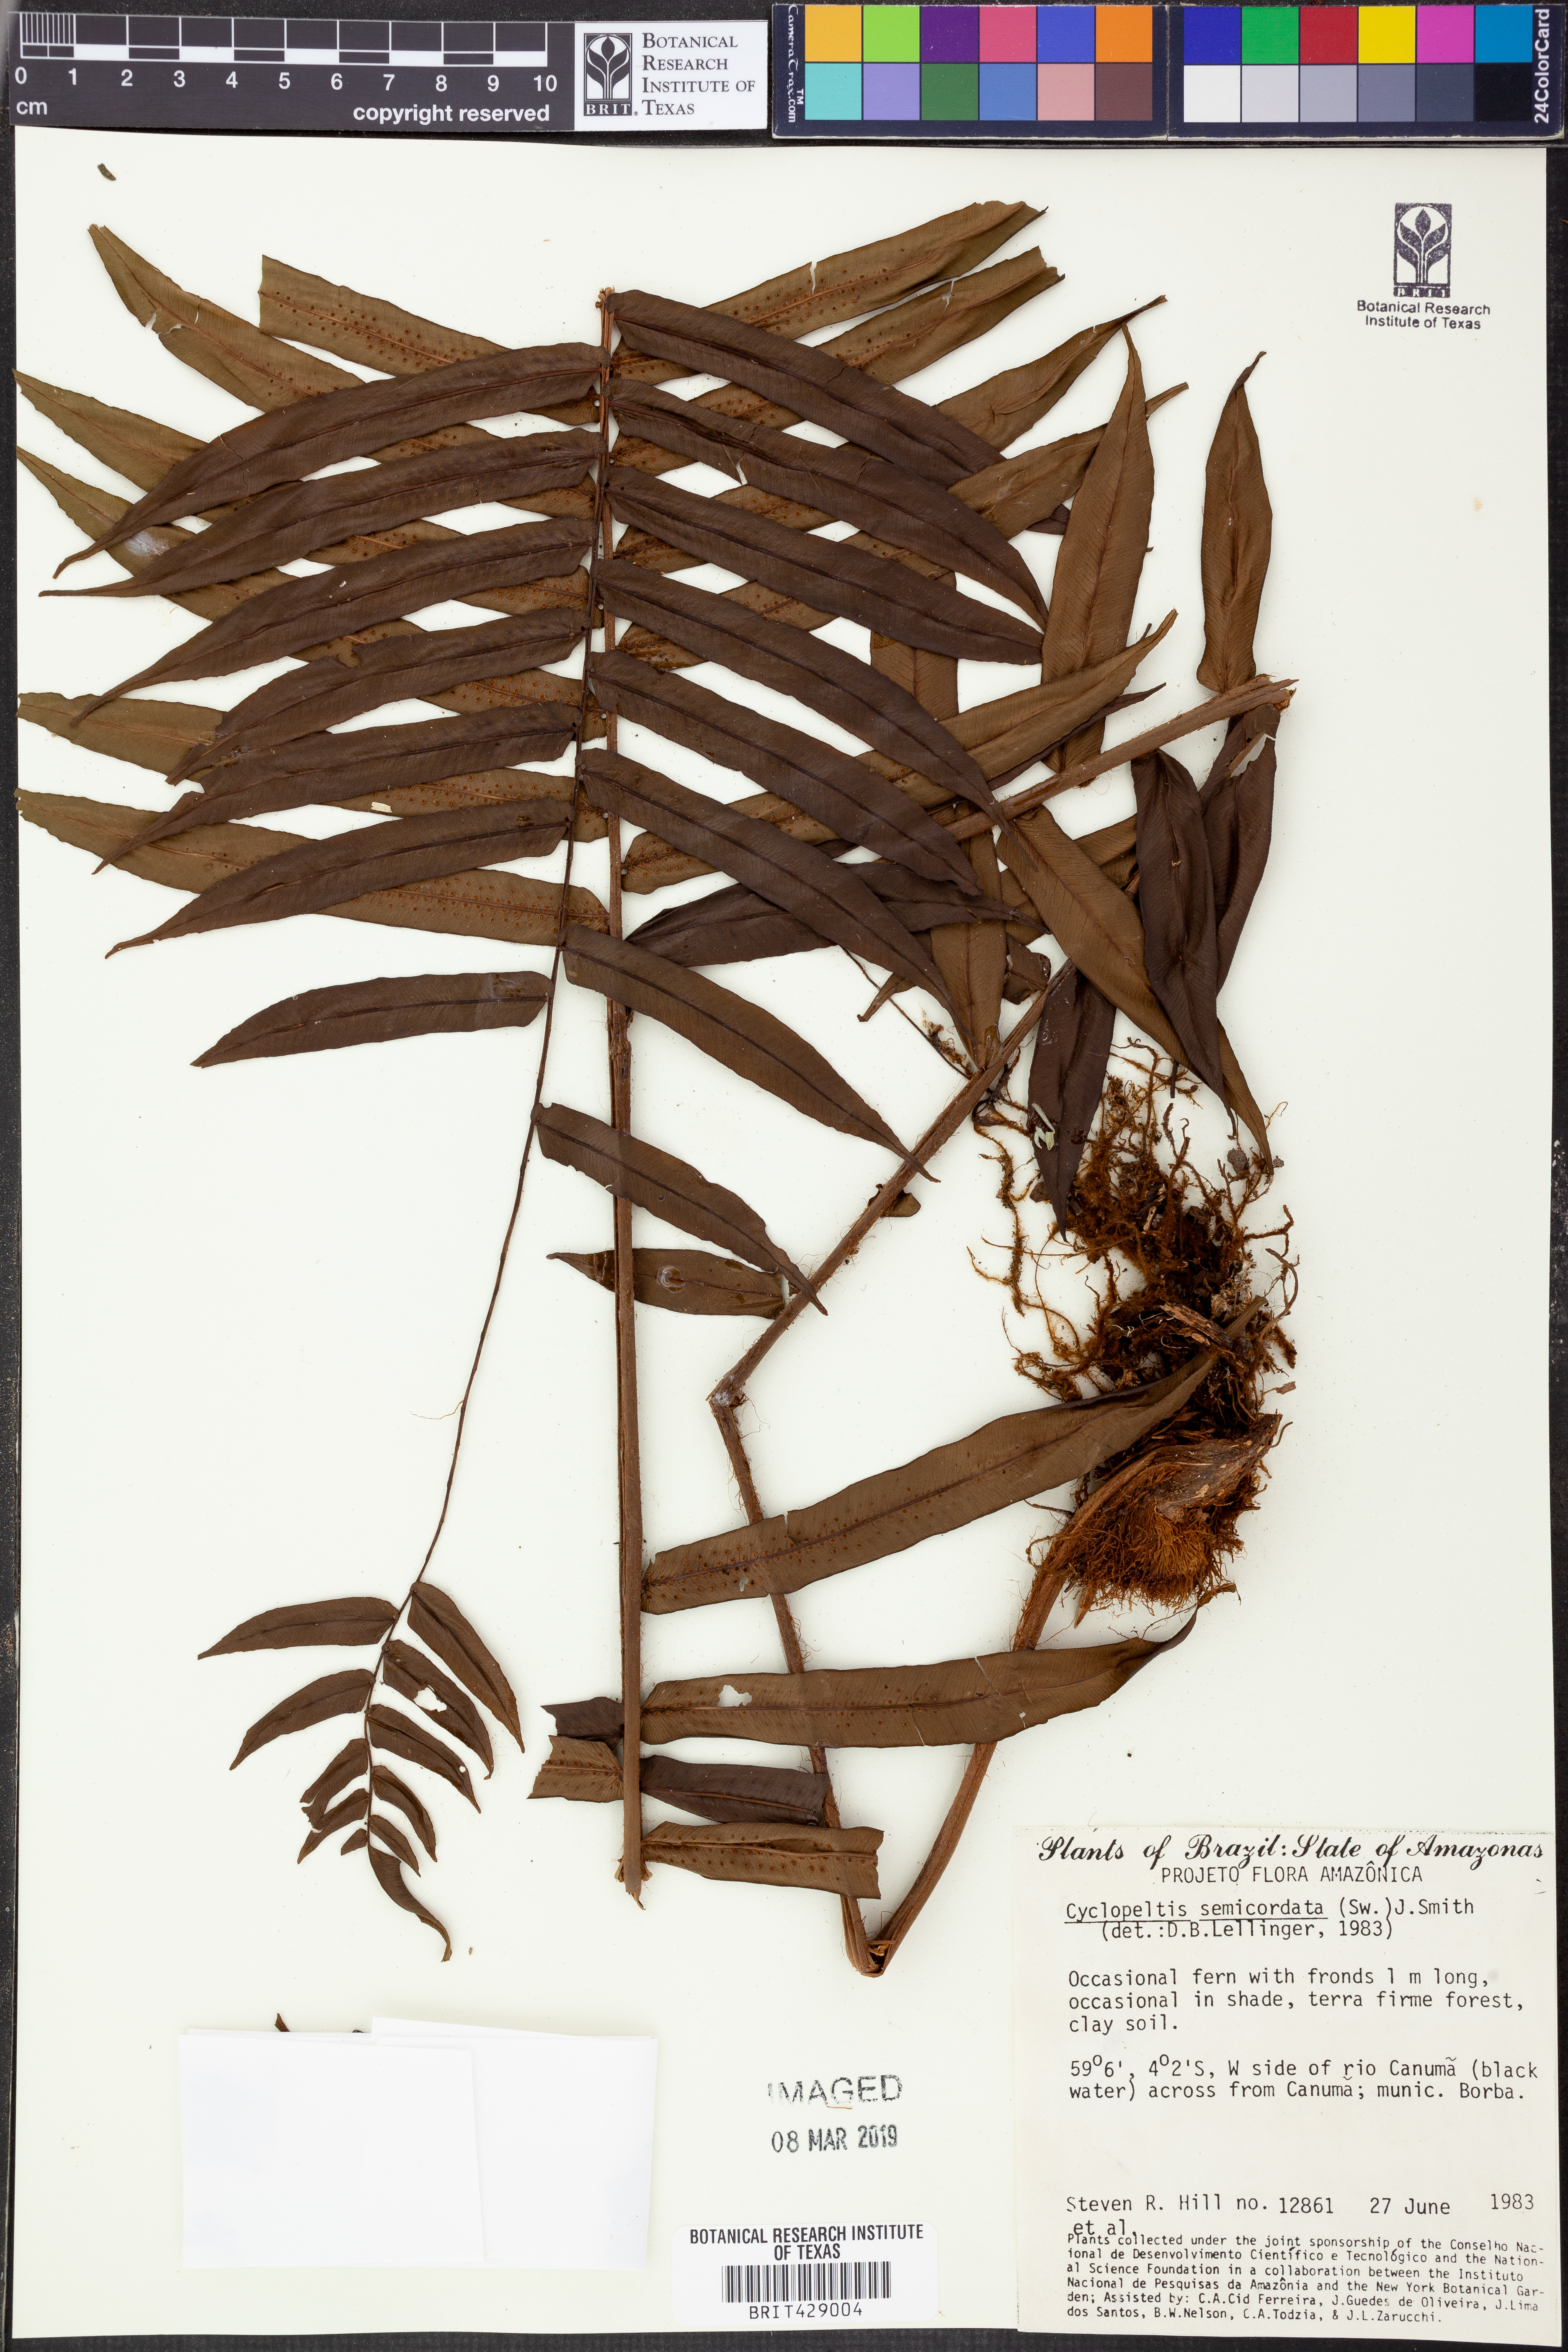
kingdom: Plantae
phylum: Tracheophyta
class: Polypodiopsida
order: Polypodiales
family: Lomariopsidaceae
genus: Cyclopeltis
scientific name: Cyclopeltis semicordata
